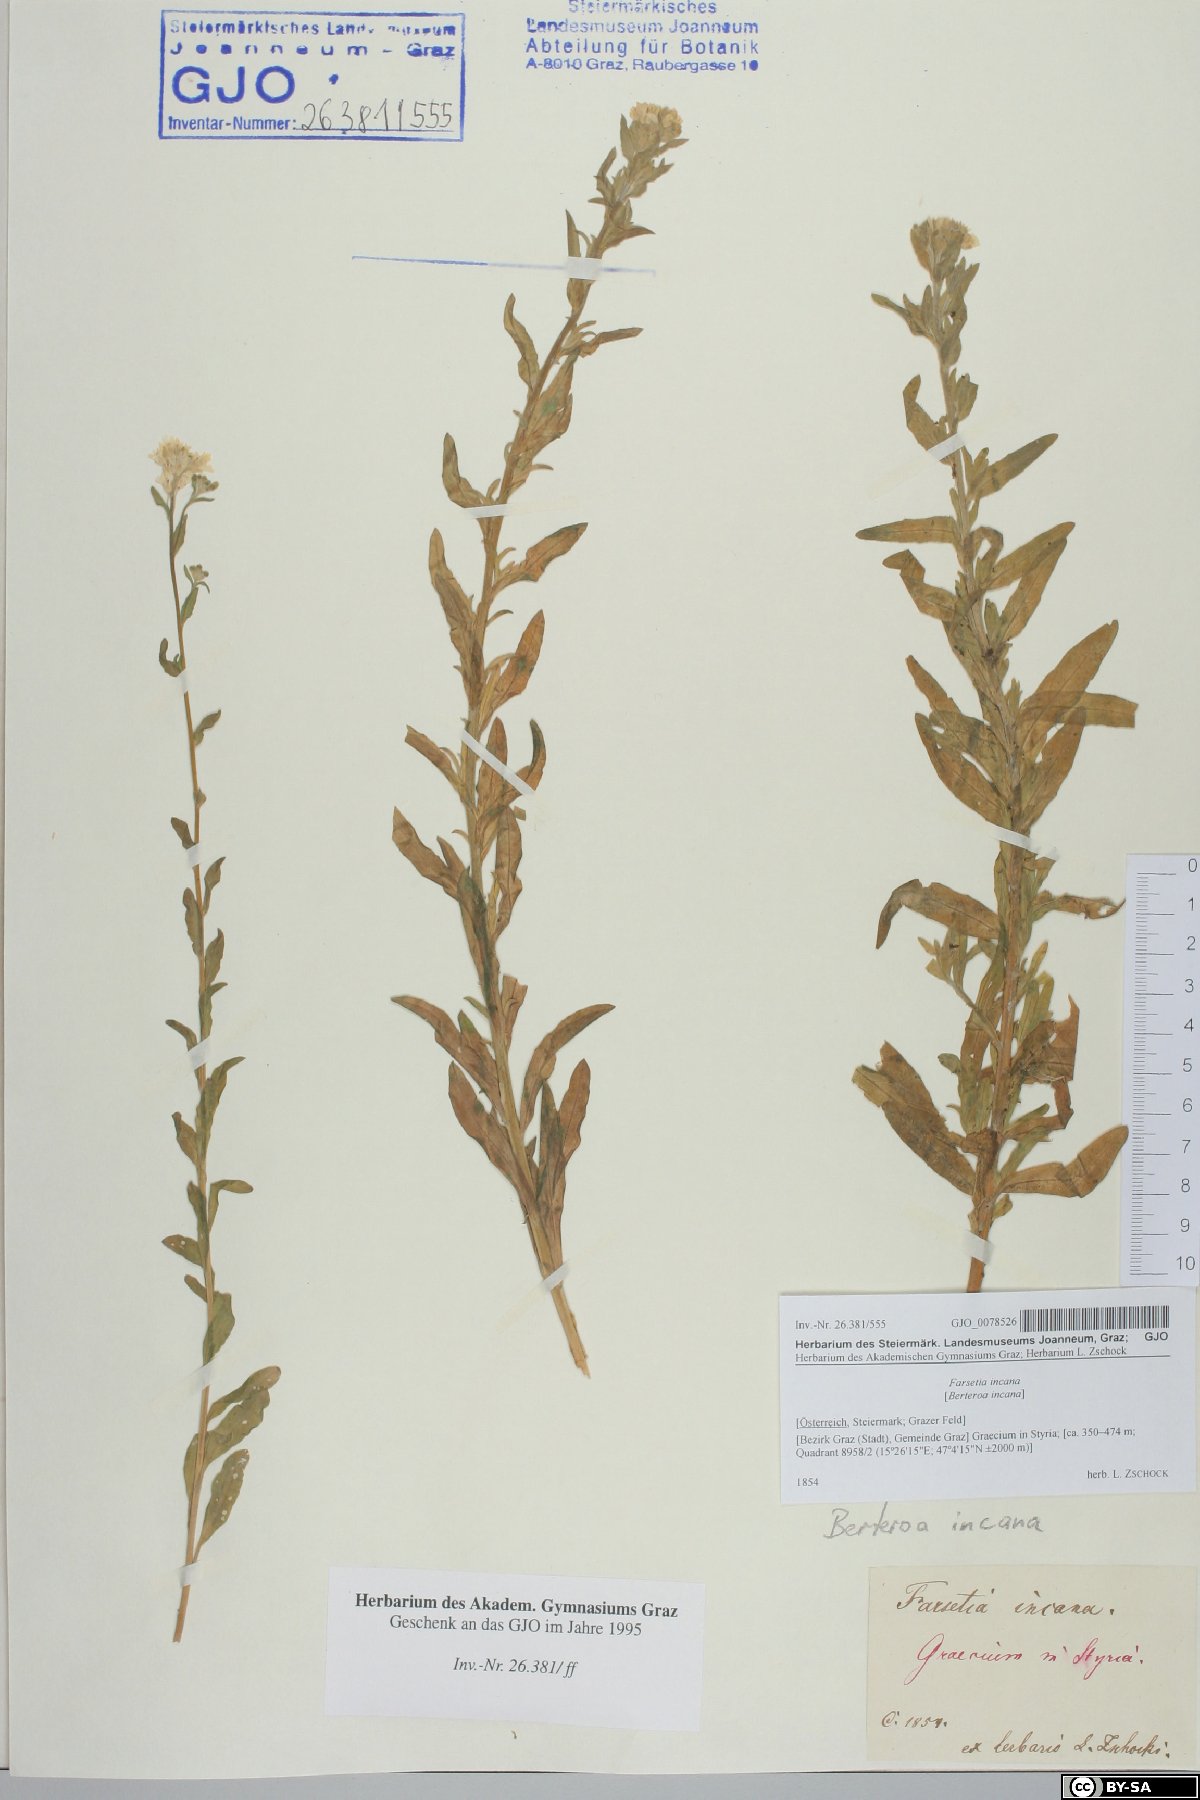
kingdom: Plantae
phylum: Tracheophyta
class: Magnoliopsida
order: Brassicales
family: Brassicaceae
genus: Berteroa
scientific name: Berteroa incana
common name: Hoary alison
